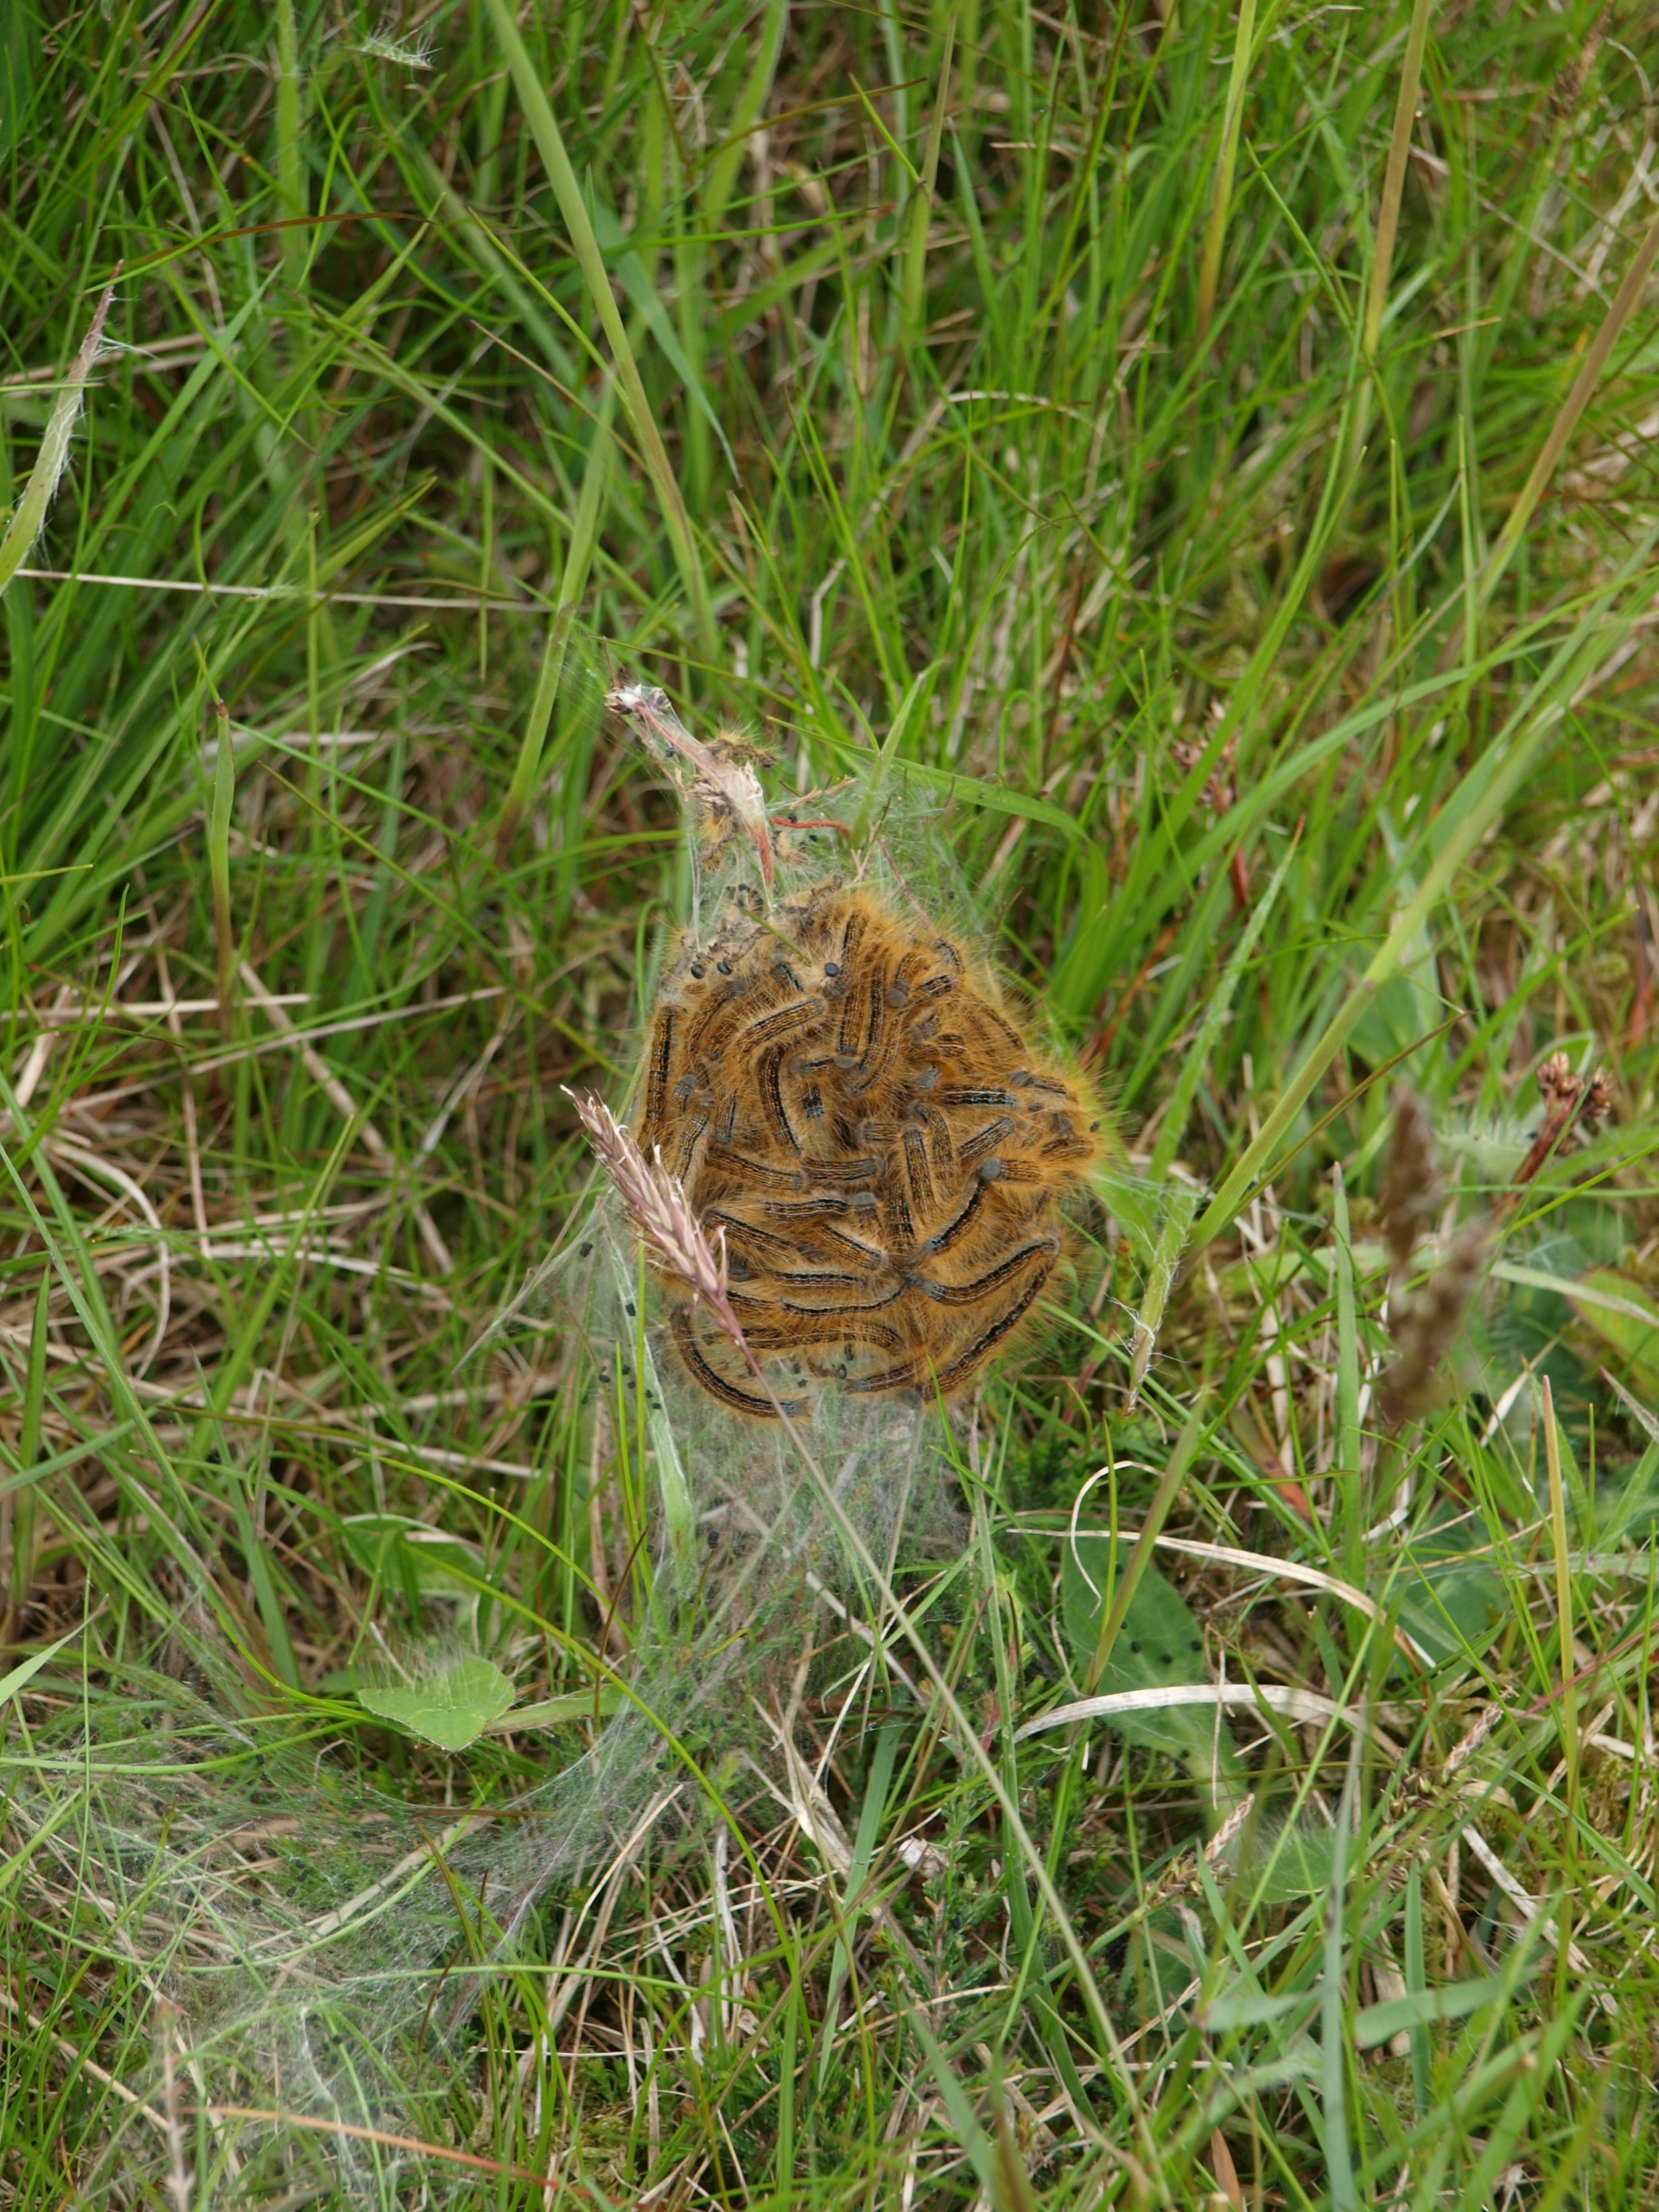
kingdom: Animalia
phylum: Arthropoda
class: Insecta
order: Lepidoptera
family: Lasiocampidae
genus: Malacosoma
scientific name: Malacosoma castrensis
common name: Redespinder
